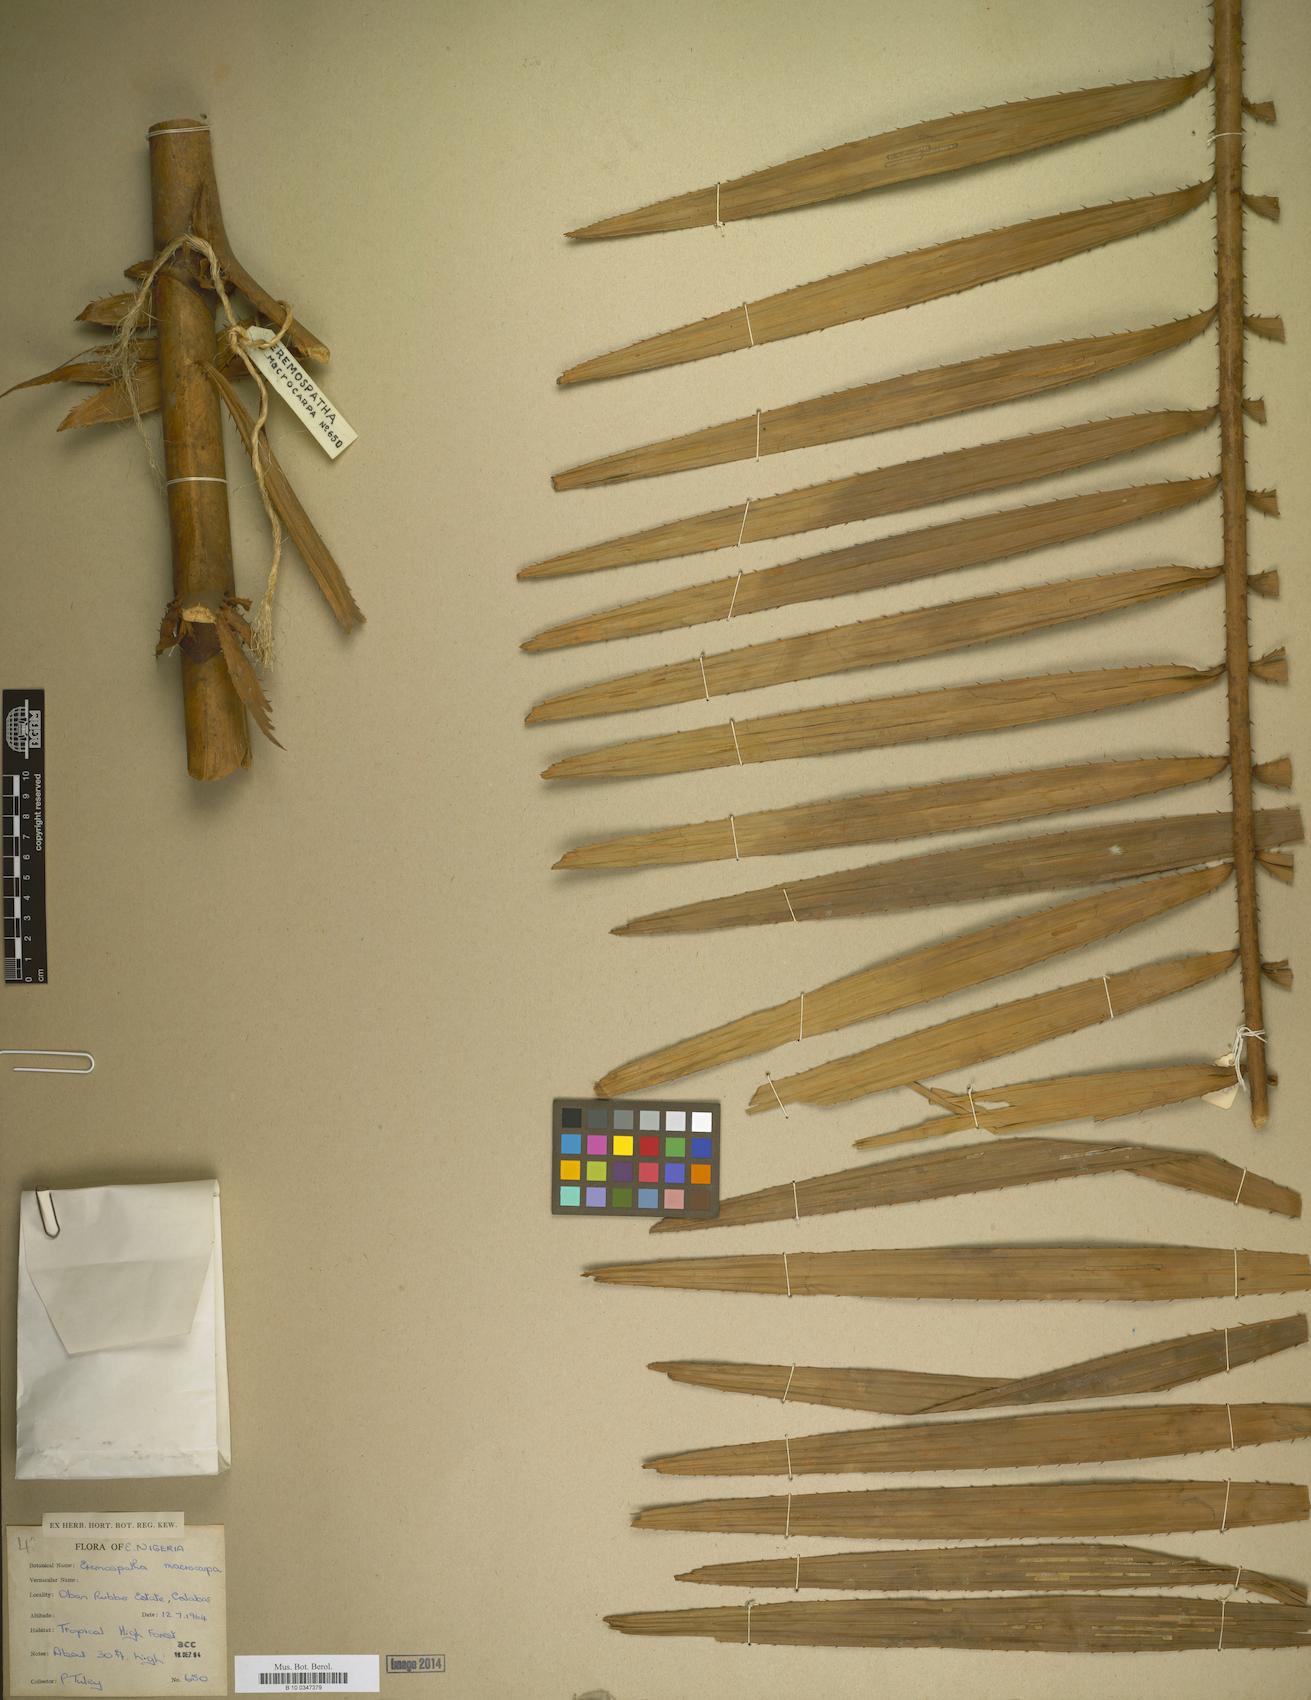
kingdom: Plantae
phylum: Tracheophyta
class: Liliopsida
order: Arecales
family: Arecaceae
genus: Eremospatha
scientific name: Eremospatha macrocarpa
